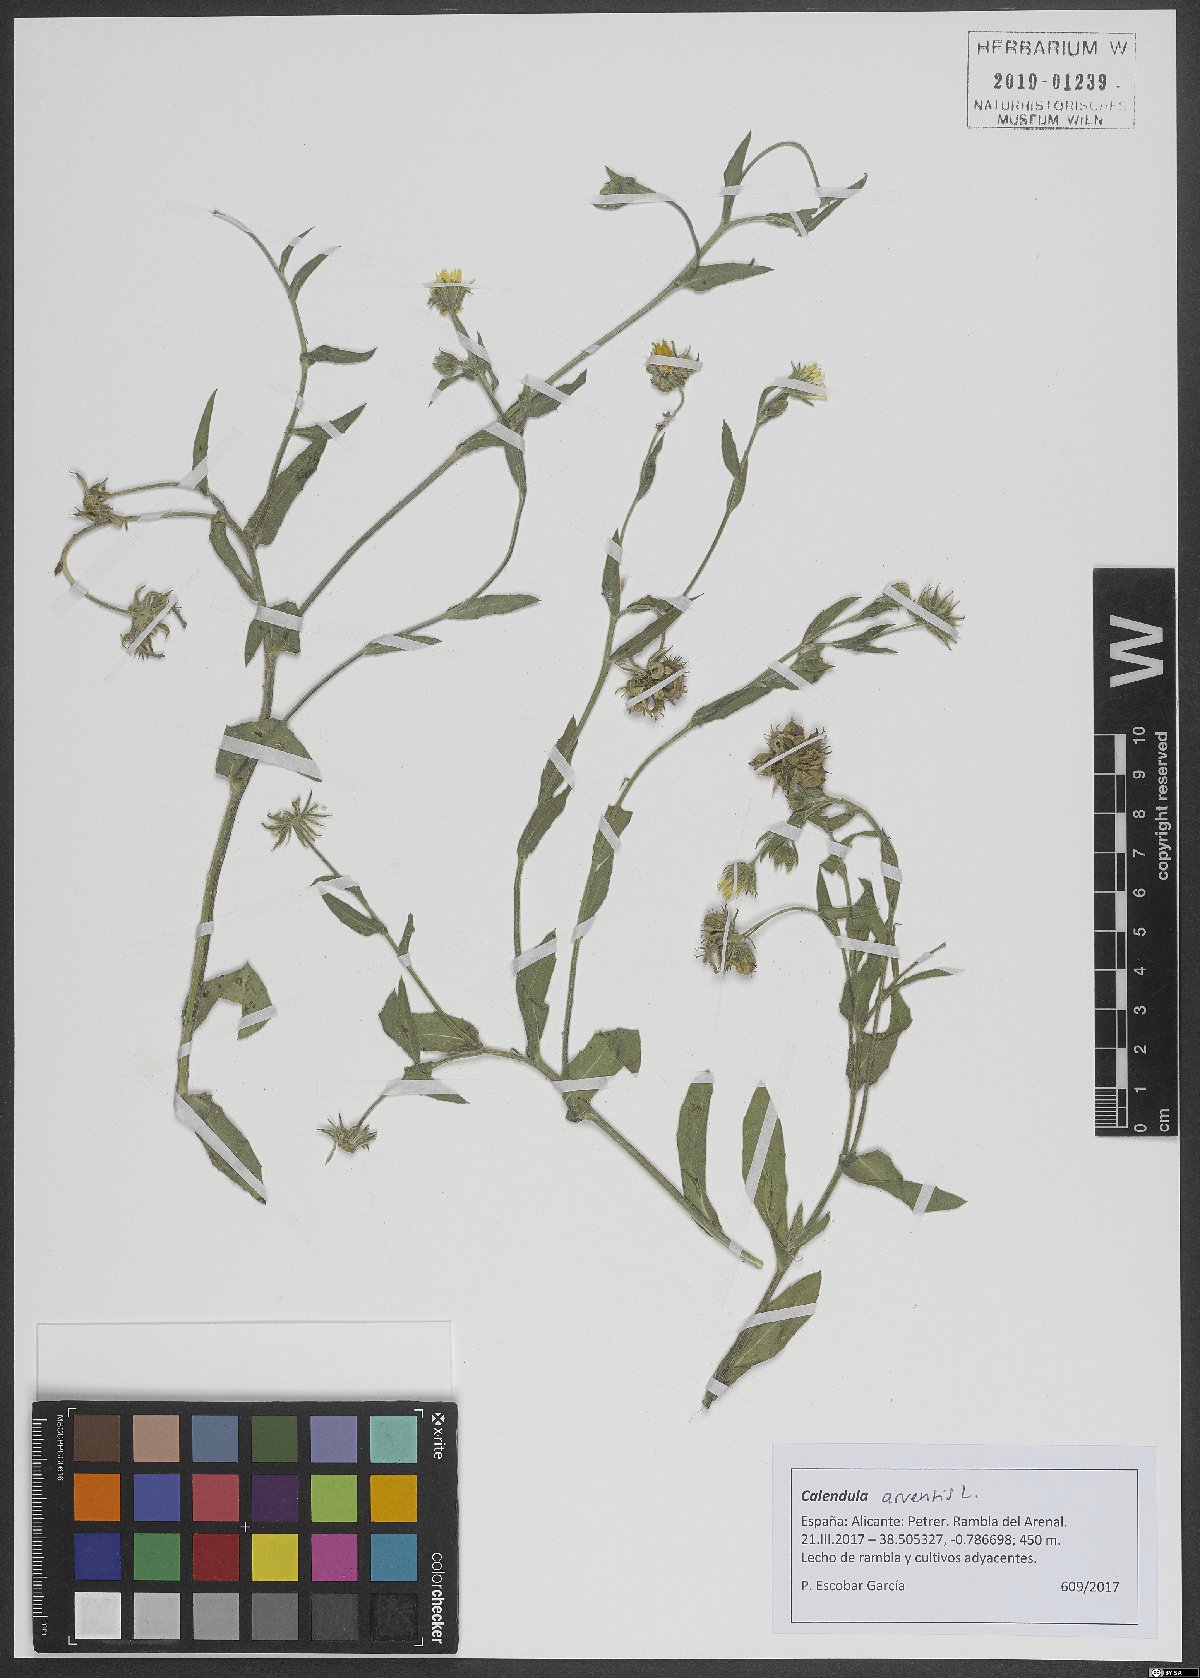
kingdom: Plantae
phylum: Tracheophyta
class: Magnoliopsida
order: Asterales
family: Asteraceae
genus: Calendula
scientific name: Calendula arvensis
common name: Field marigold
